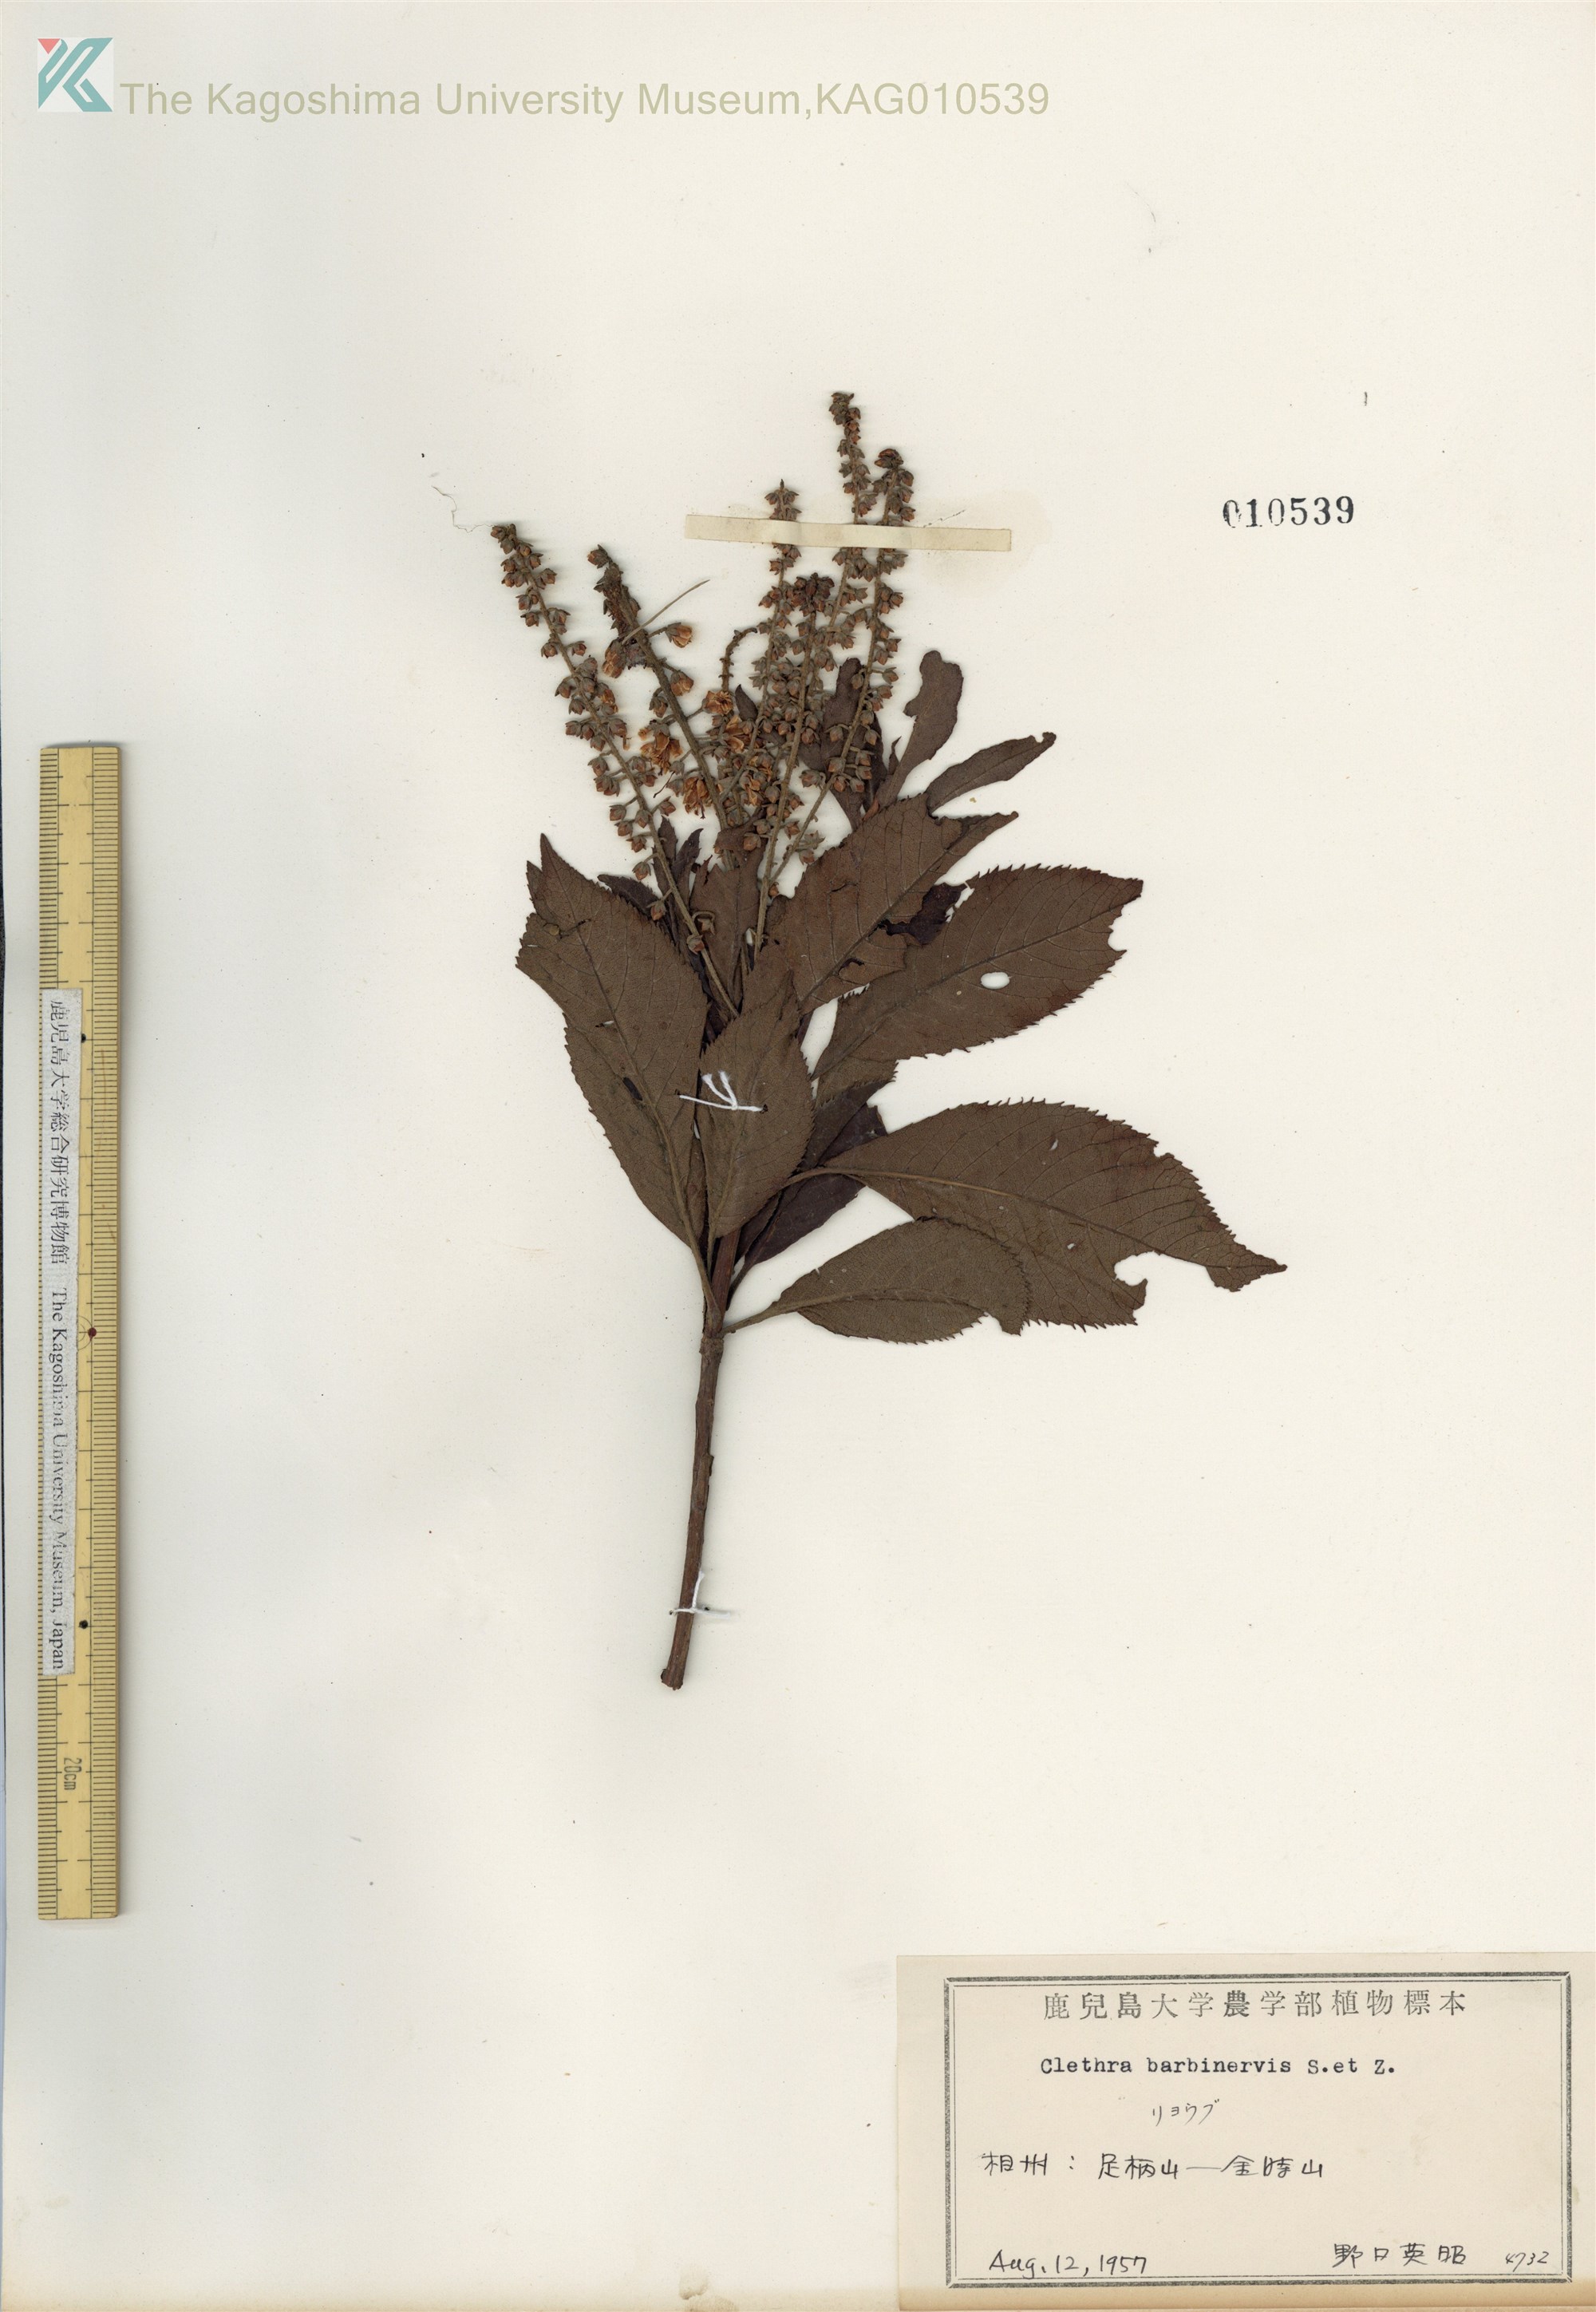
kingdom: Plantae
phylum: Tracheophyta
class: Magnoliopsida
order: Ericales
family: Clethraceae
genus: Clethra
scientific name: Clethra barbinervis
